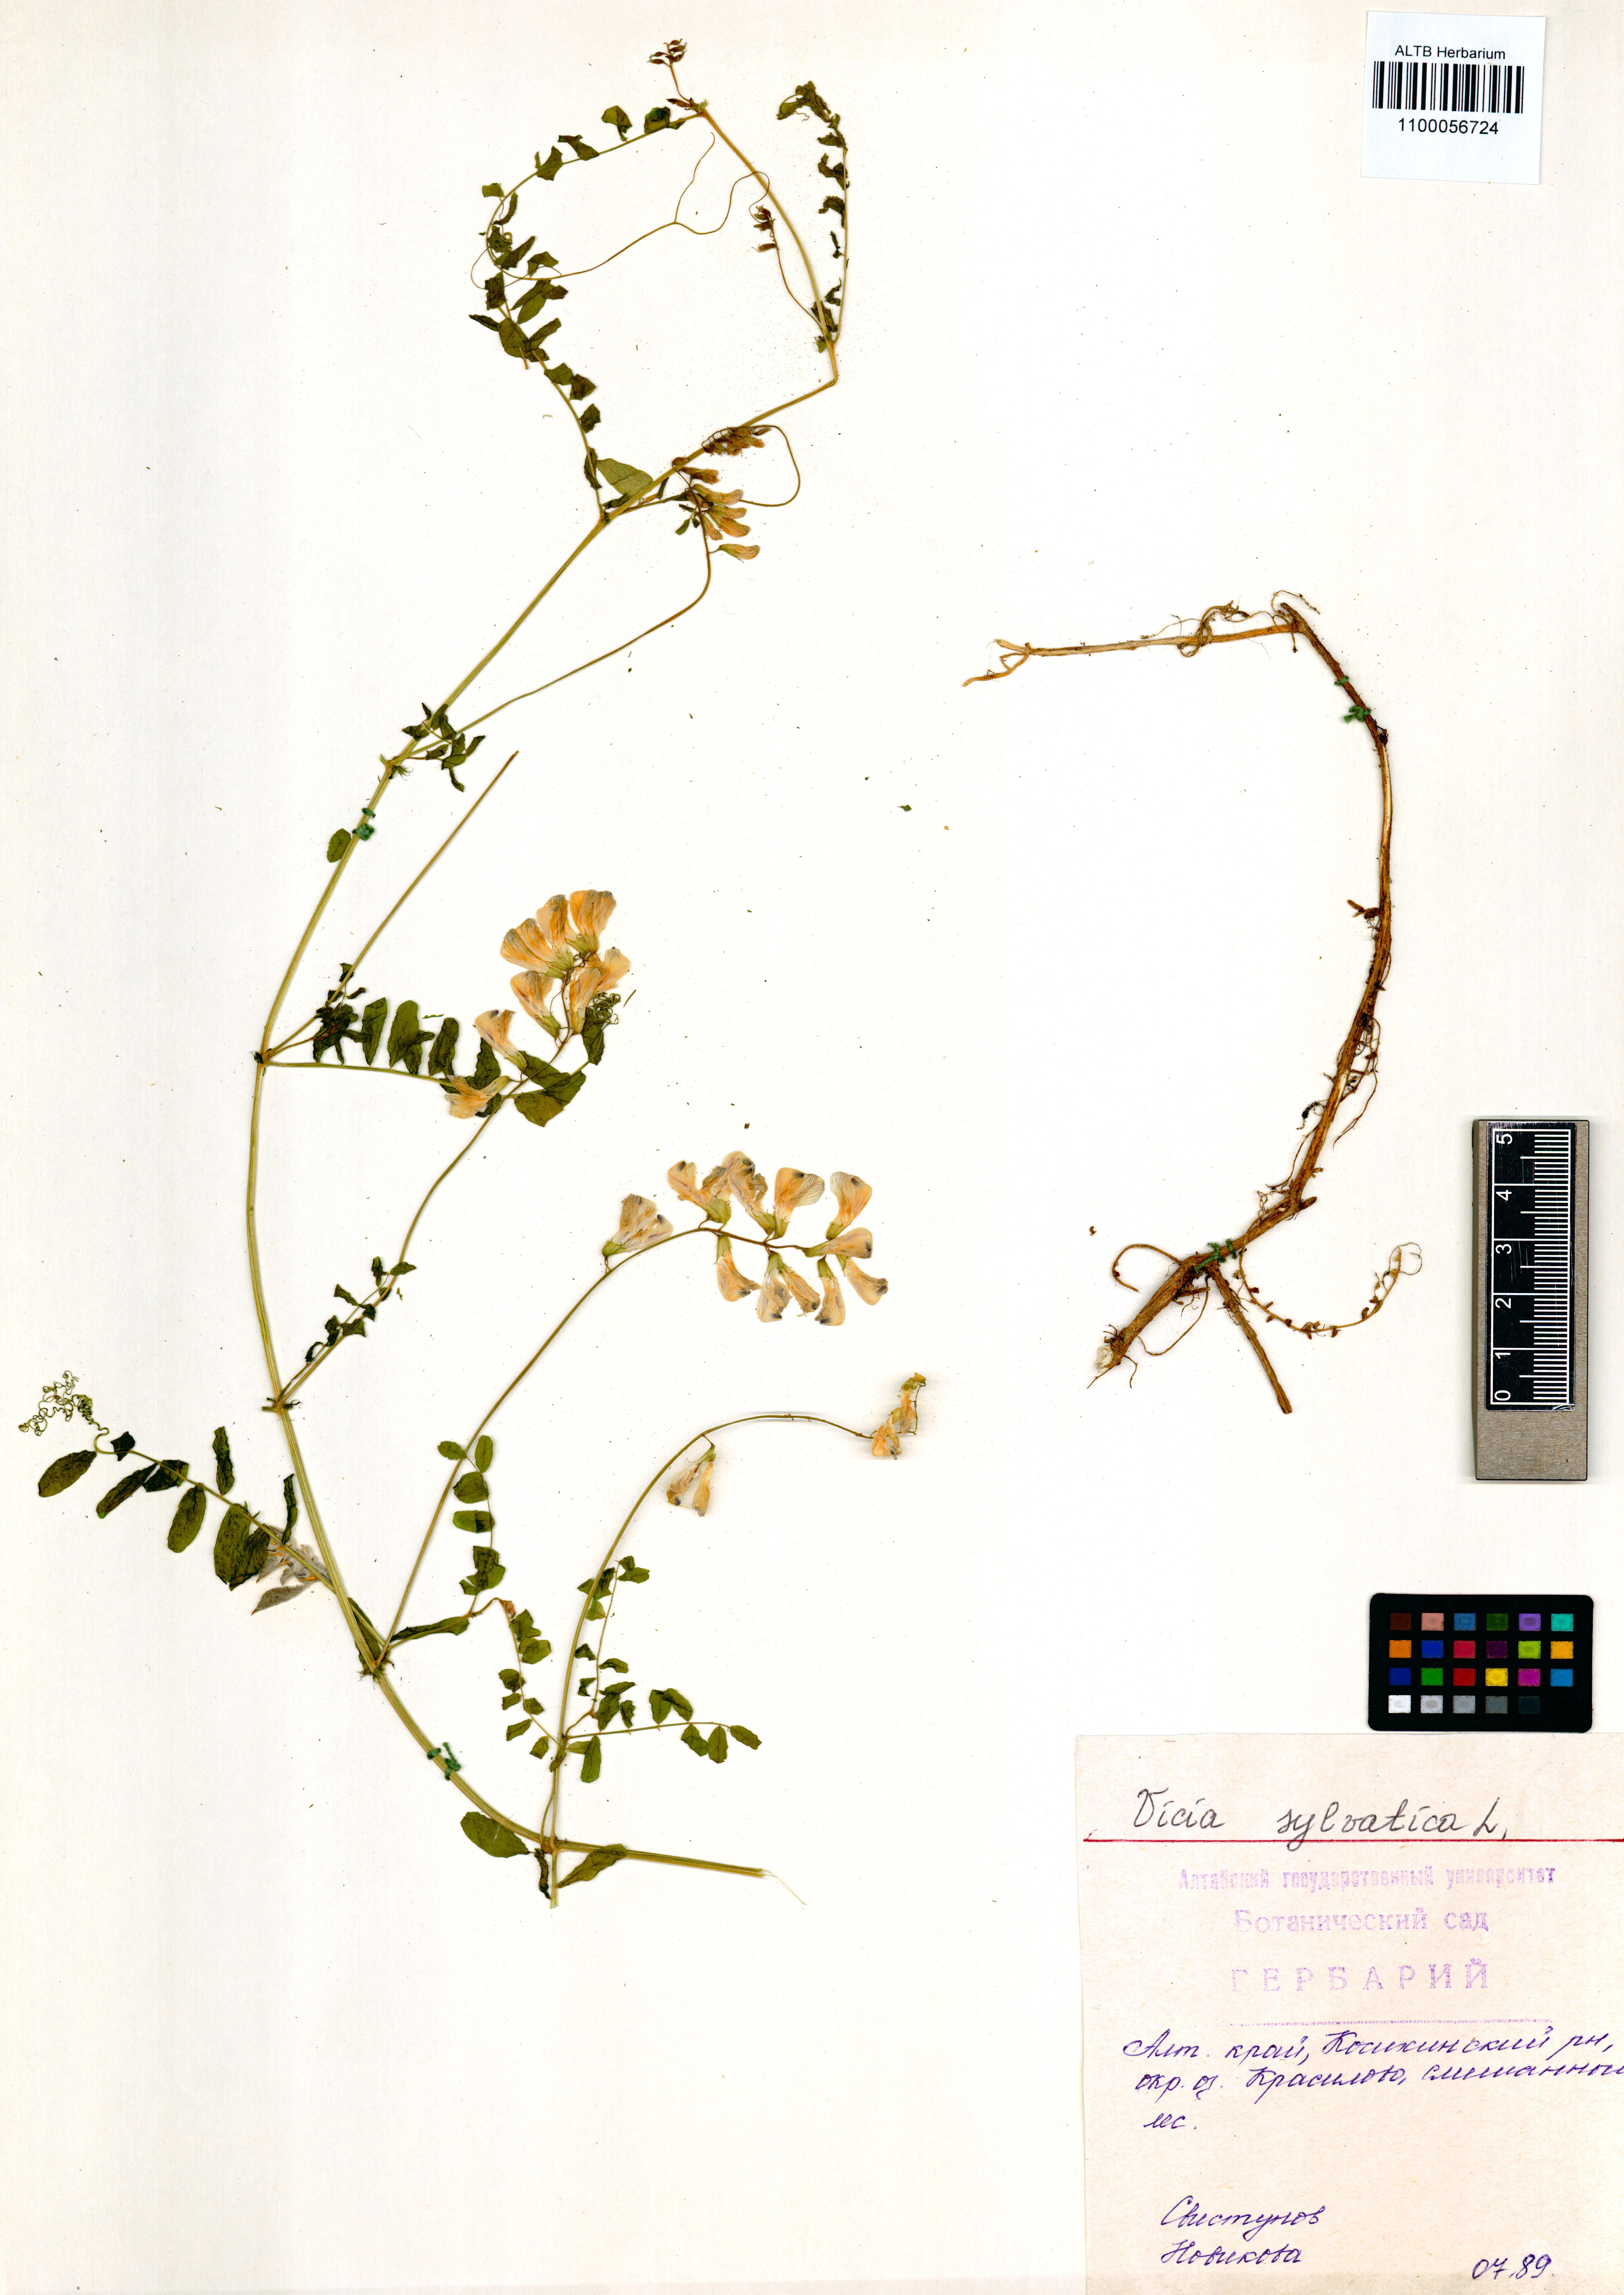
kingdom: Plantae
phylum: Tracheophyta
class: Magnoliopsida
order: Fabales
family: Fabaceae
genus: Vicia
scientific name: Vicia sylvatica
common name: Wood vetch
